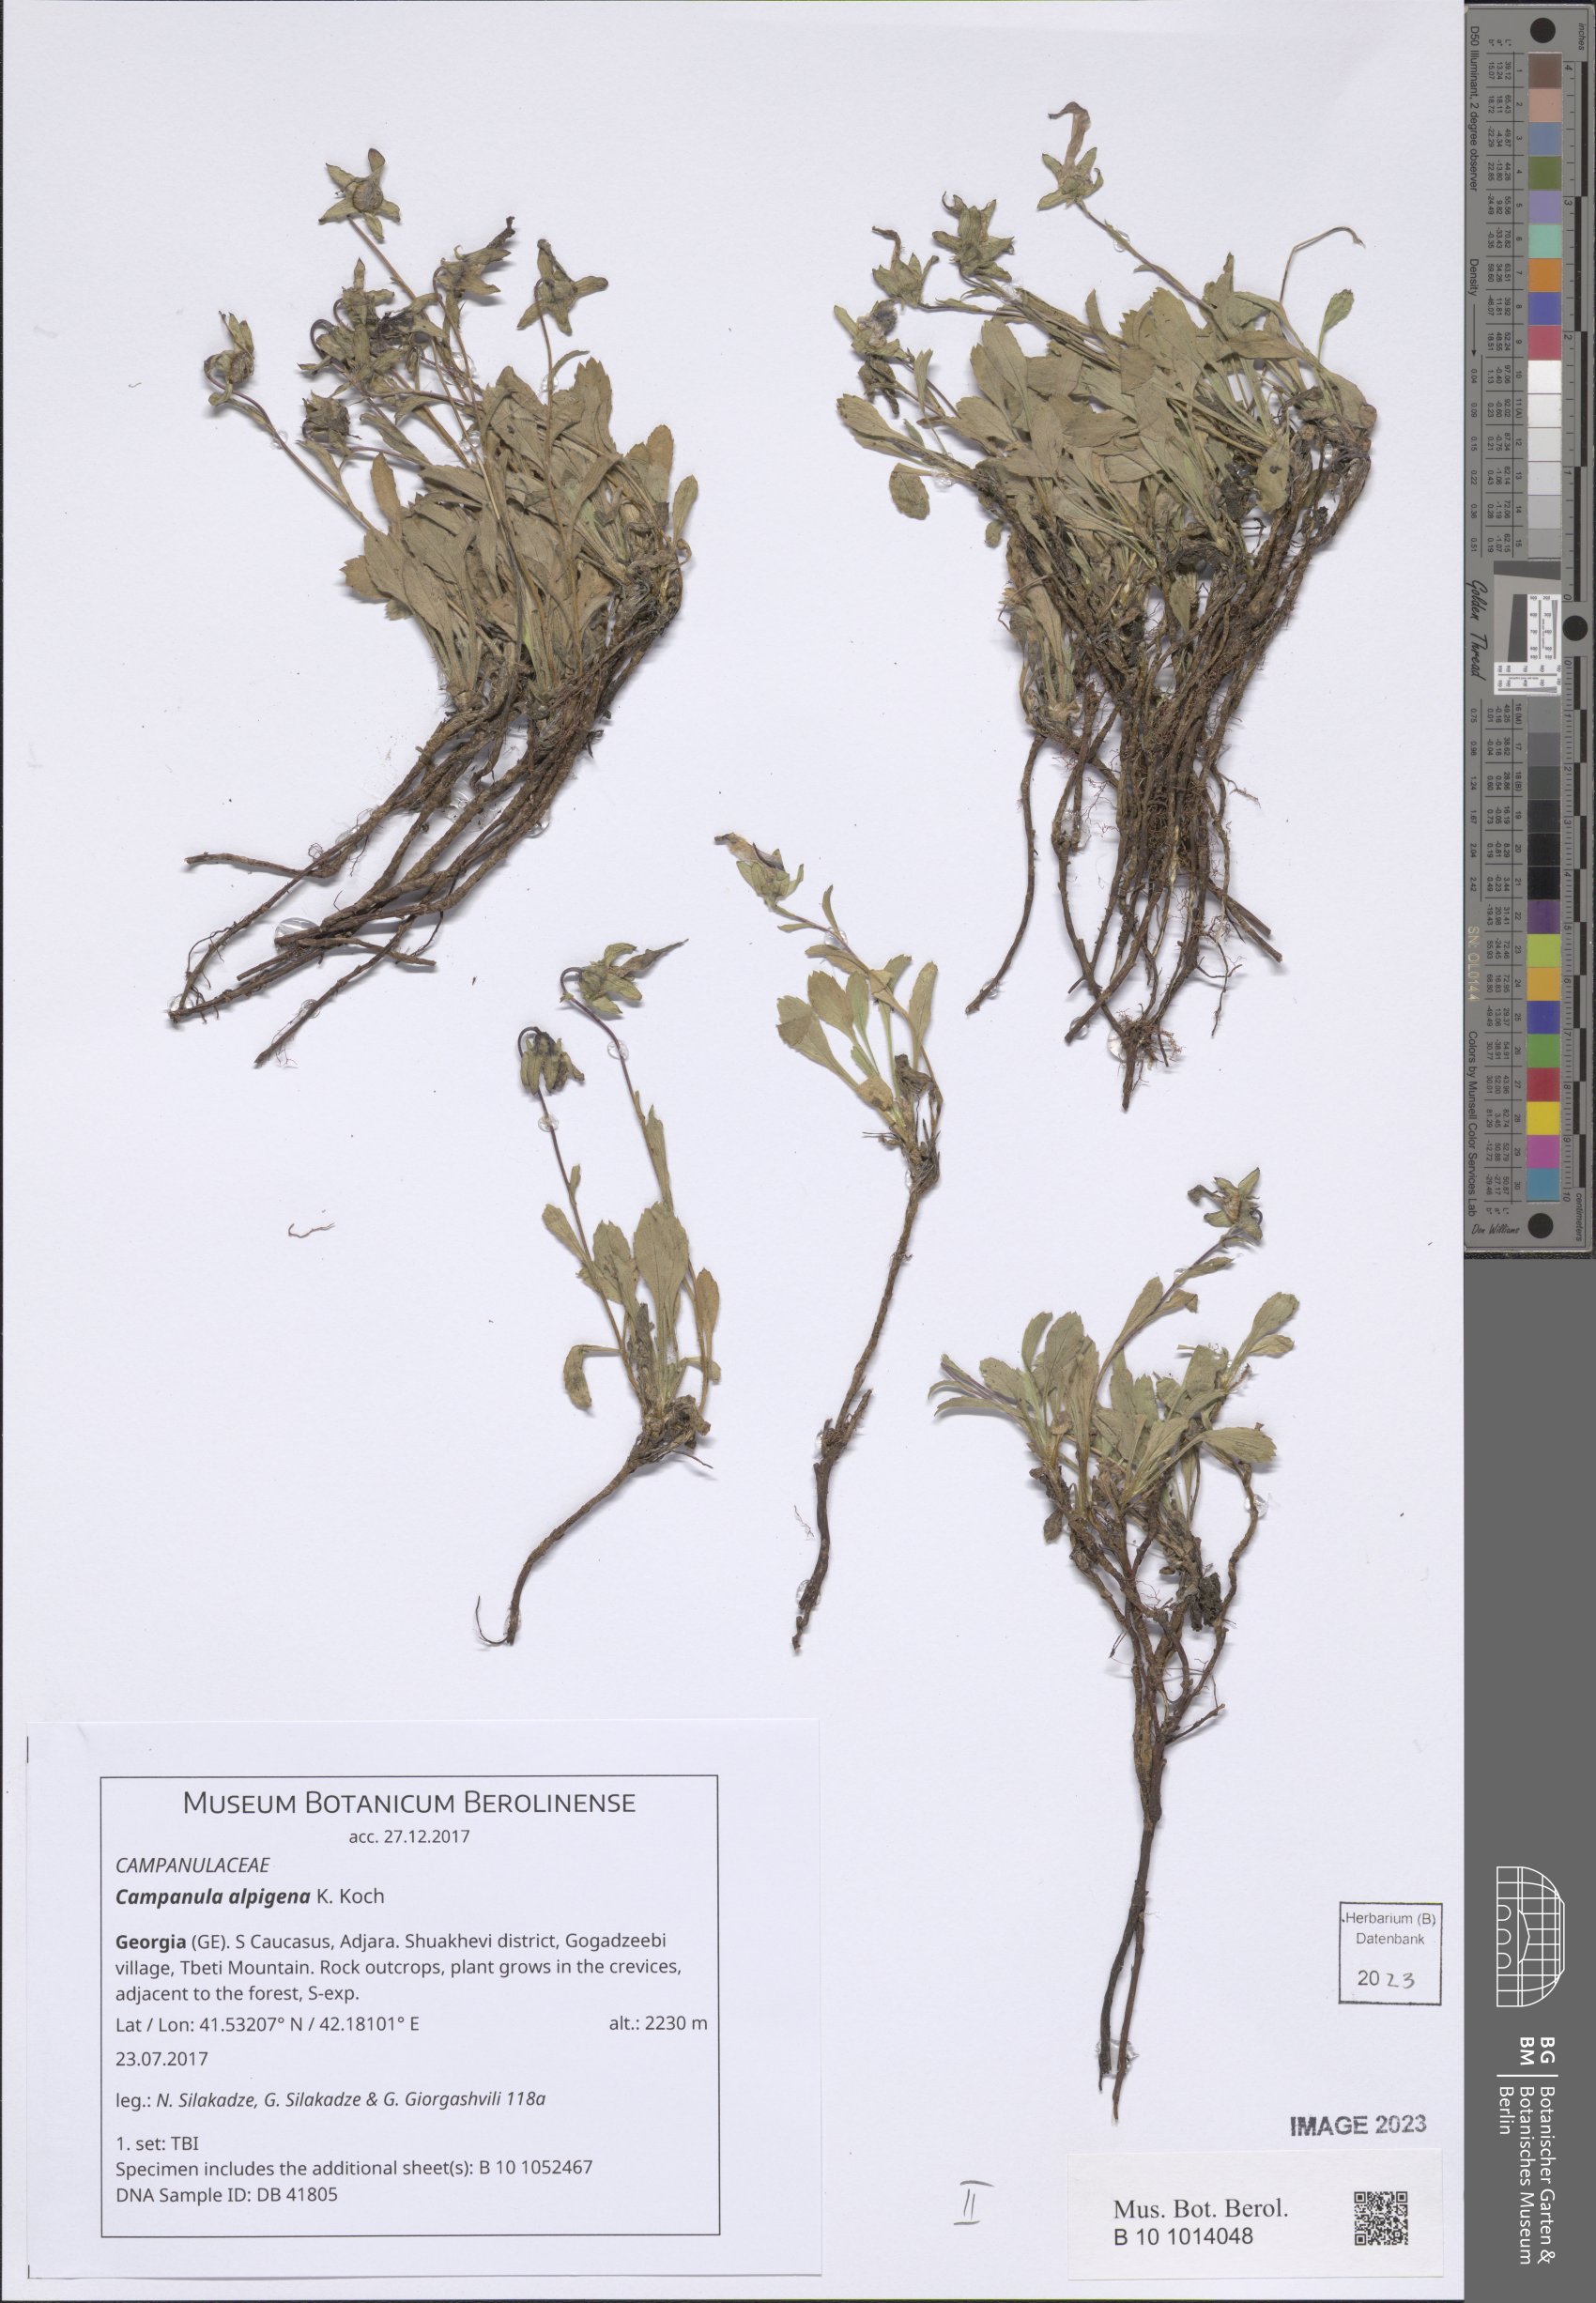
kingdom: Plantae
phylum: Tracheophyta
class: Magnoliopsida
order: Asterales
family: Campanulaceae
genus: Campanula
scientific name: Campanula saxifraga
